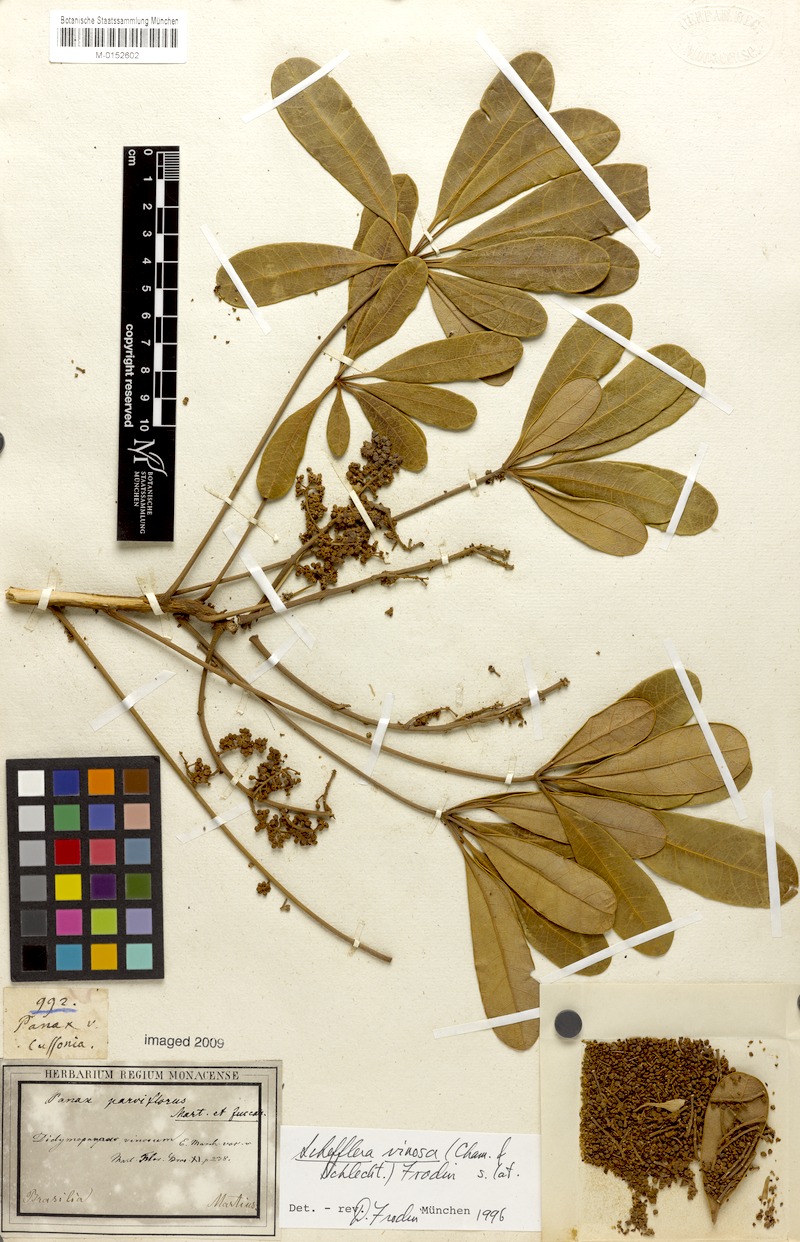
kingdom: Plantae
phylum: Tracheophyta
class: Magnoliopsida
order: Apiales
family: Araliaceae
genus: Didymopanax
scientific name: Didymopanax vinosus
